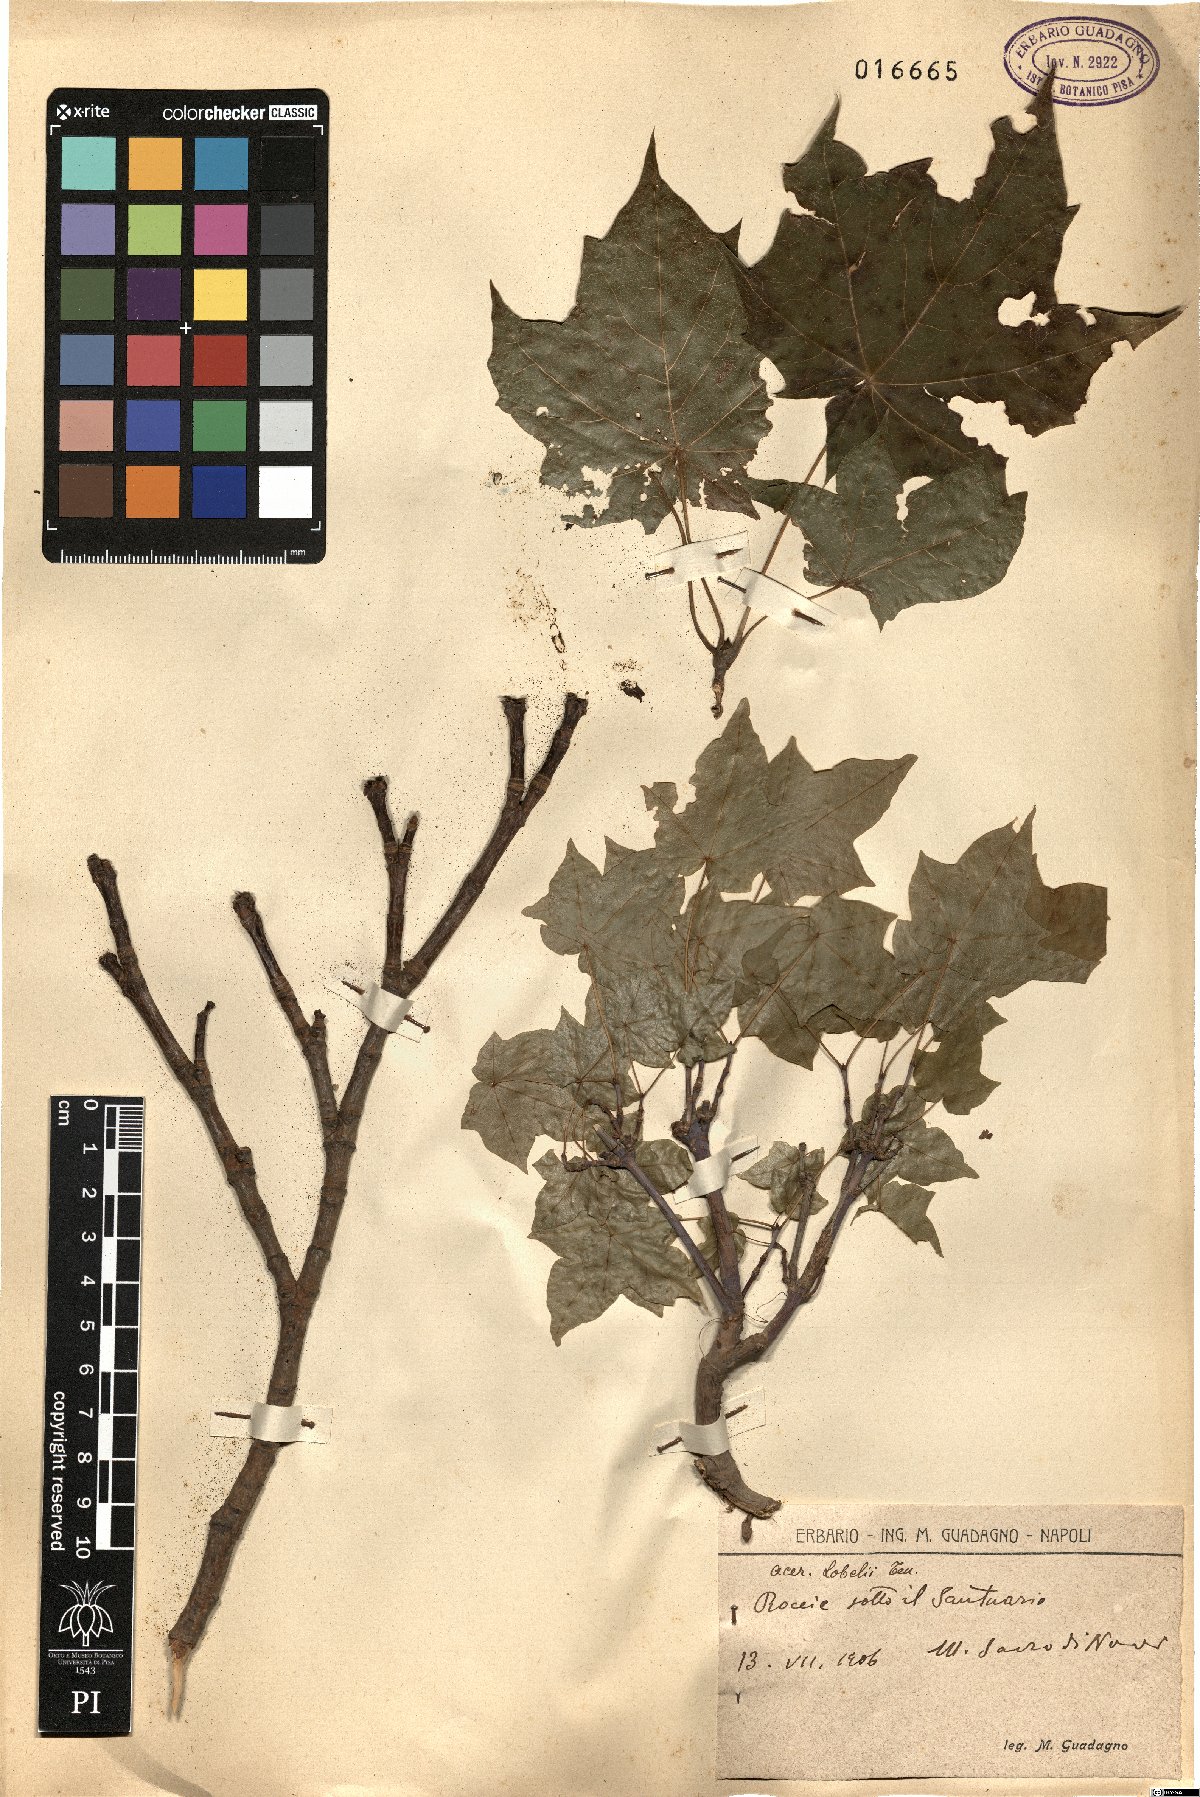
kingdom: Plantae
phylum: Tracheophyta
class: Magnoliopsida
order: Sapindales
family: Sapindaceae
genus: Acer
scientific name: Acer lobelii
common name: Lobel's maple
